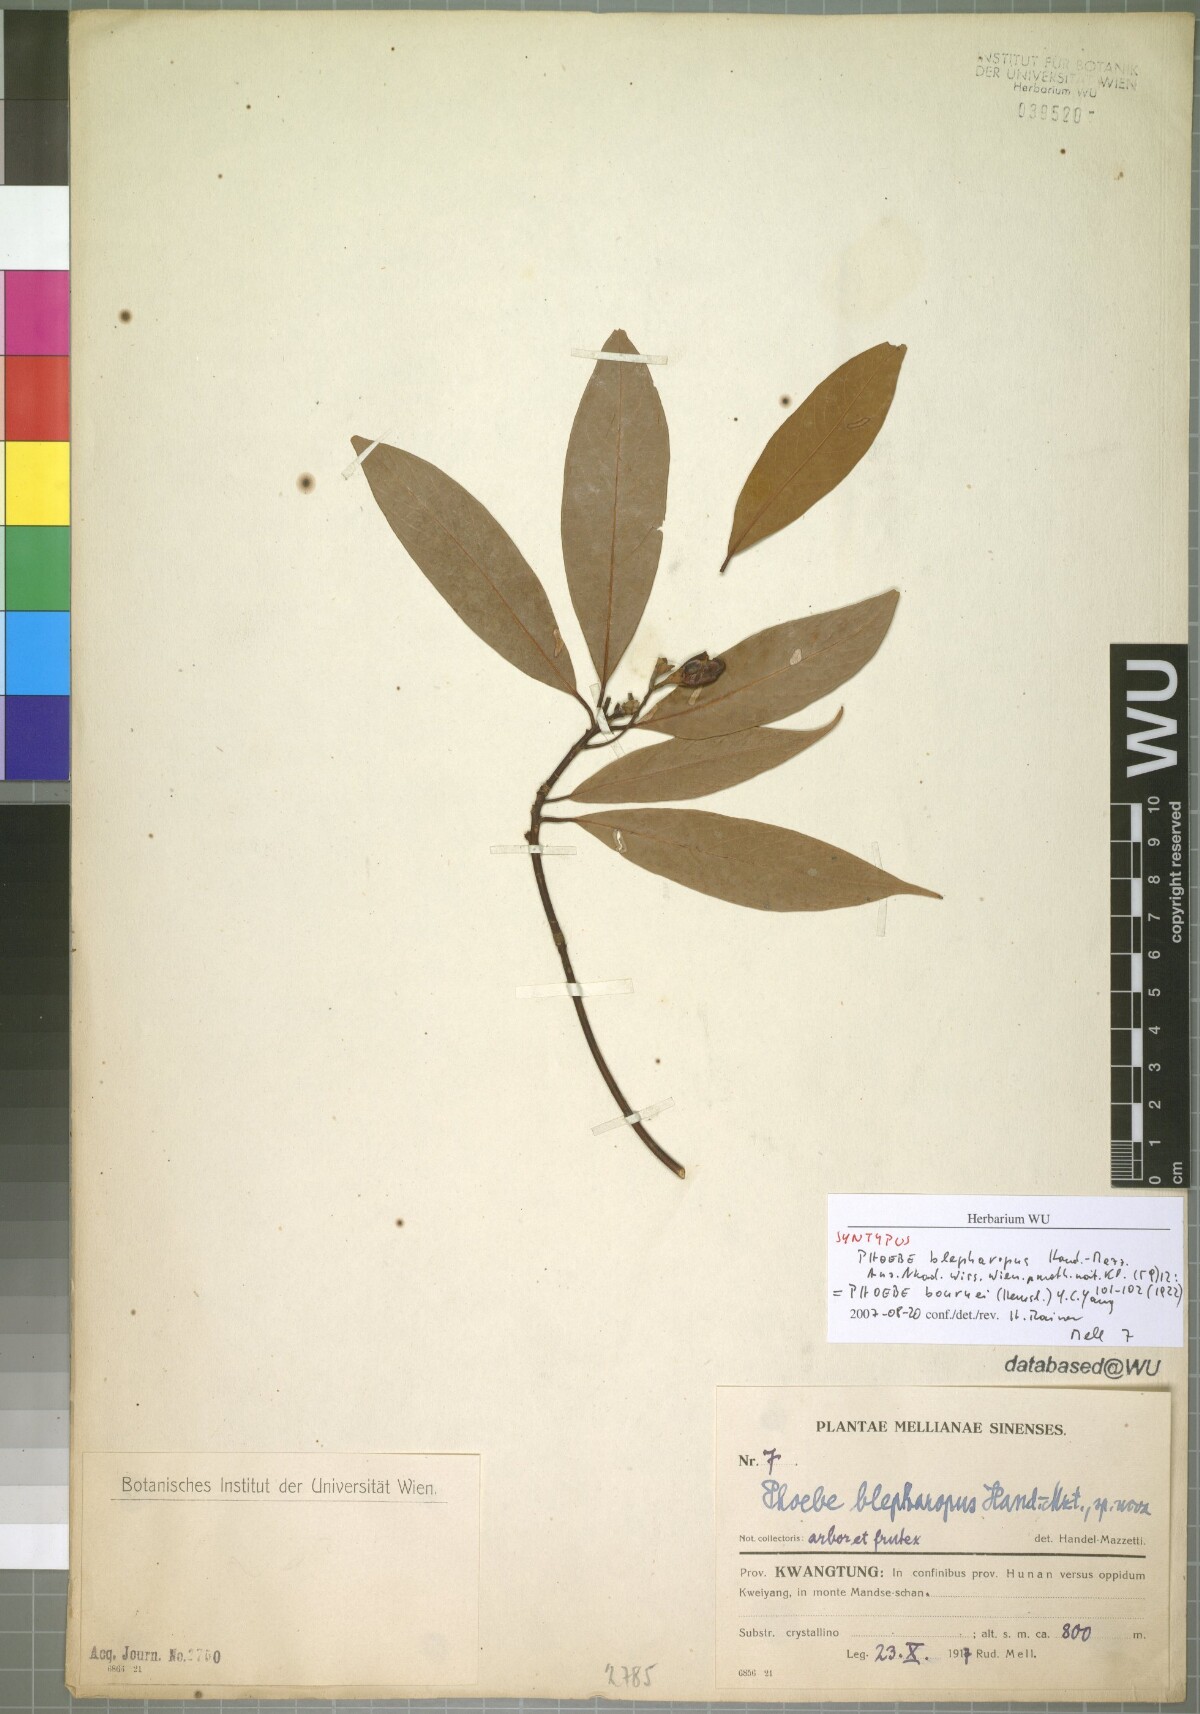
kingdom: Plantae
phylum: Tracheophyta
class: Magnoliopsida
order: Laurales
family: Lauraceae
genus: Phoebe
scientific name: Phoebe bournei
